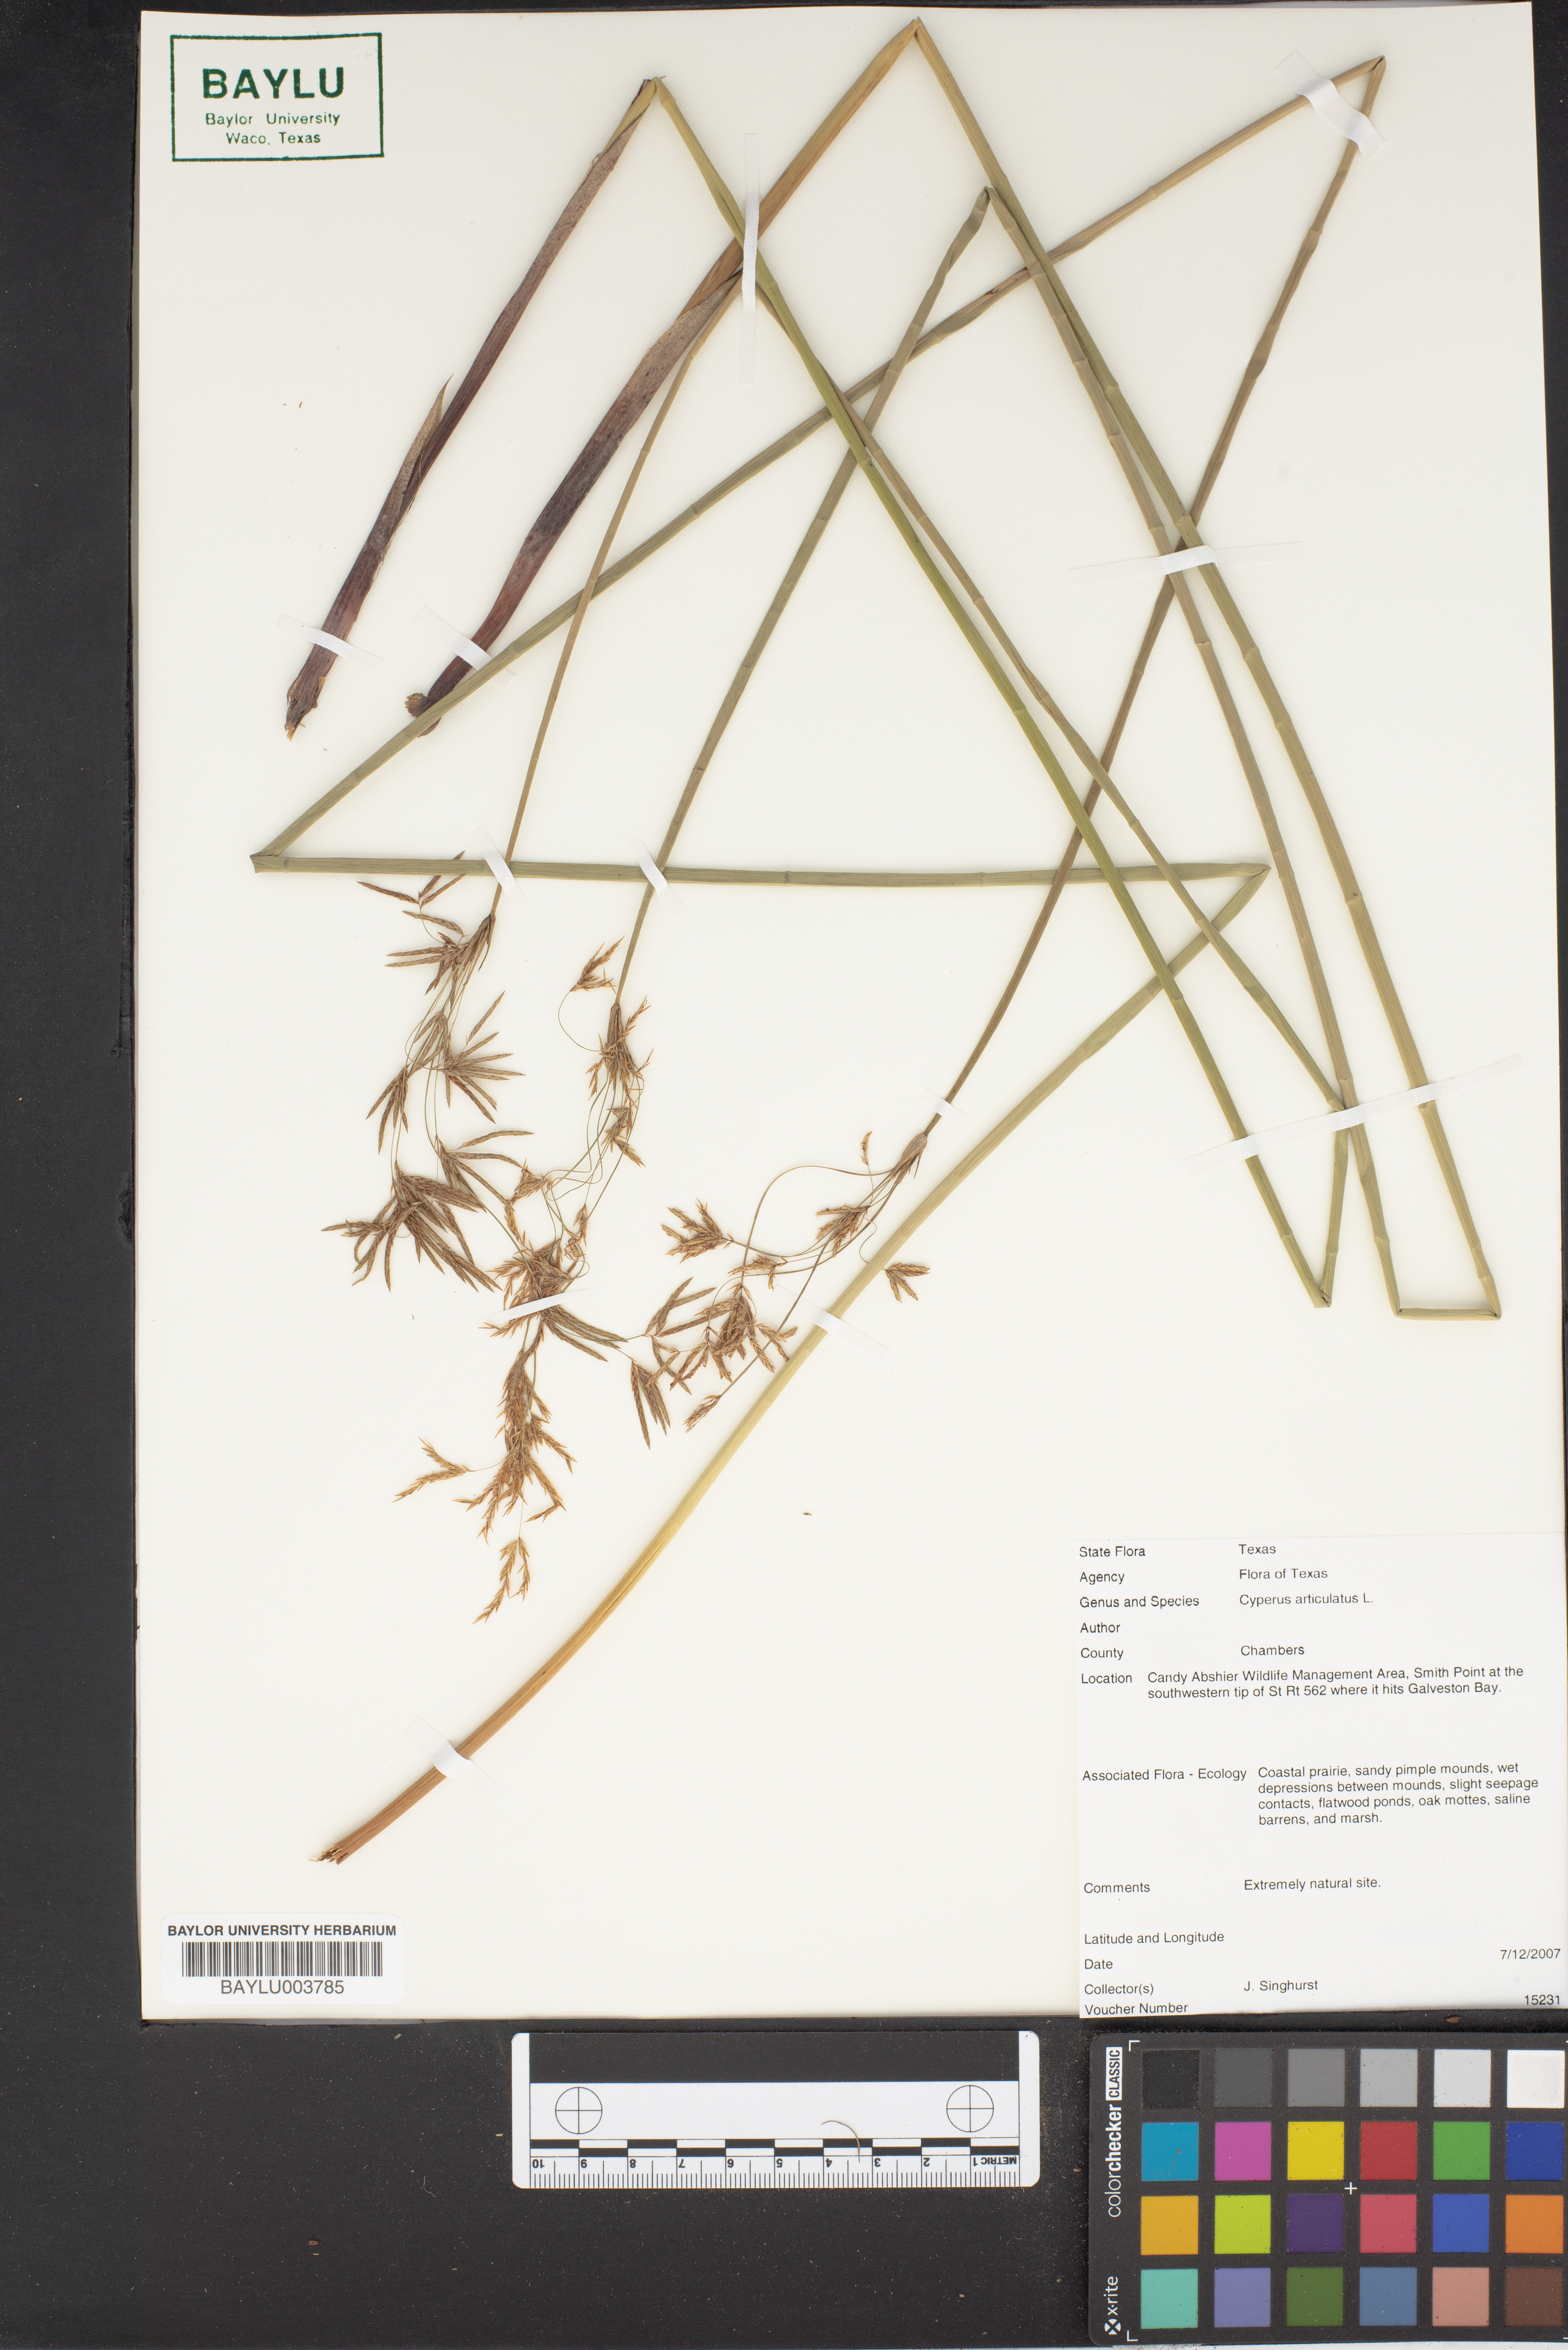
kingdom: Plantae
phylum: Tracheophyta
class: Liliopsida
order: Poales
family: Cyperaceae
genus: Cyperus
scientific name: Cyperus articulatus
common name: Jointed flatsedge
